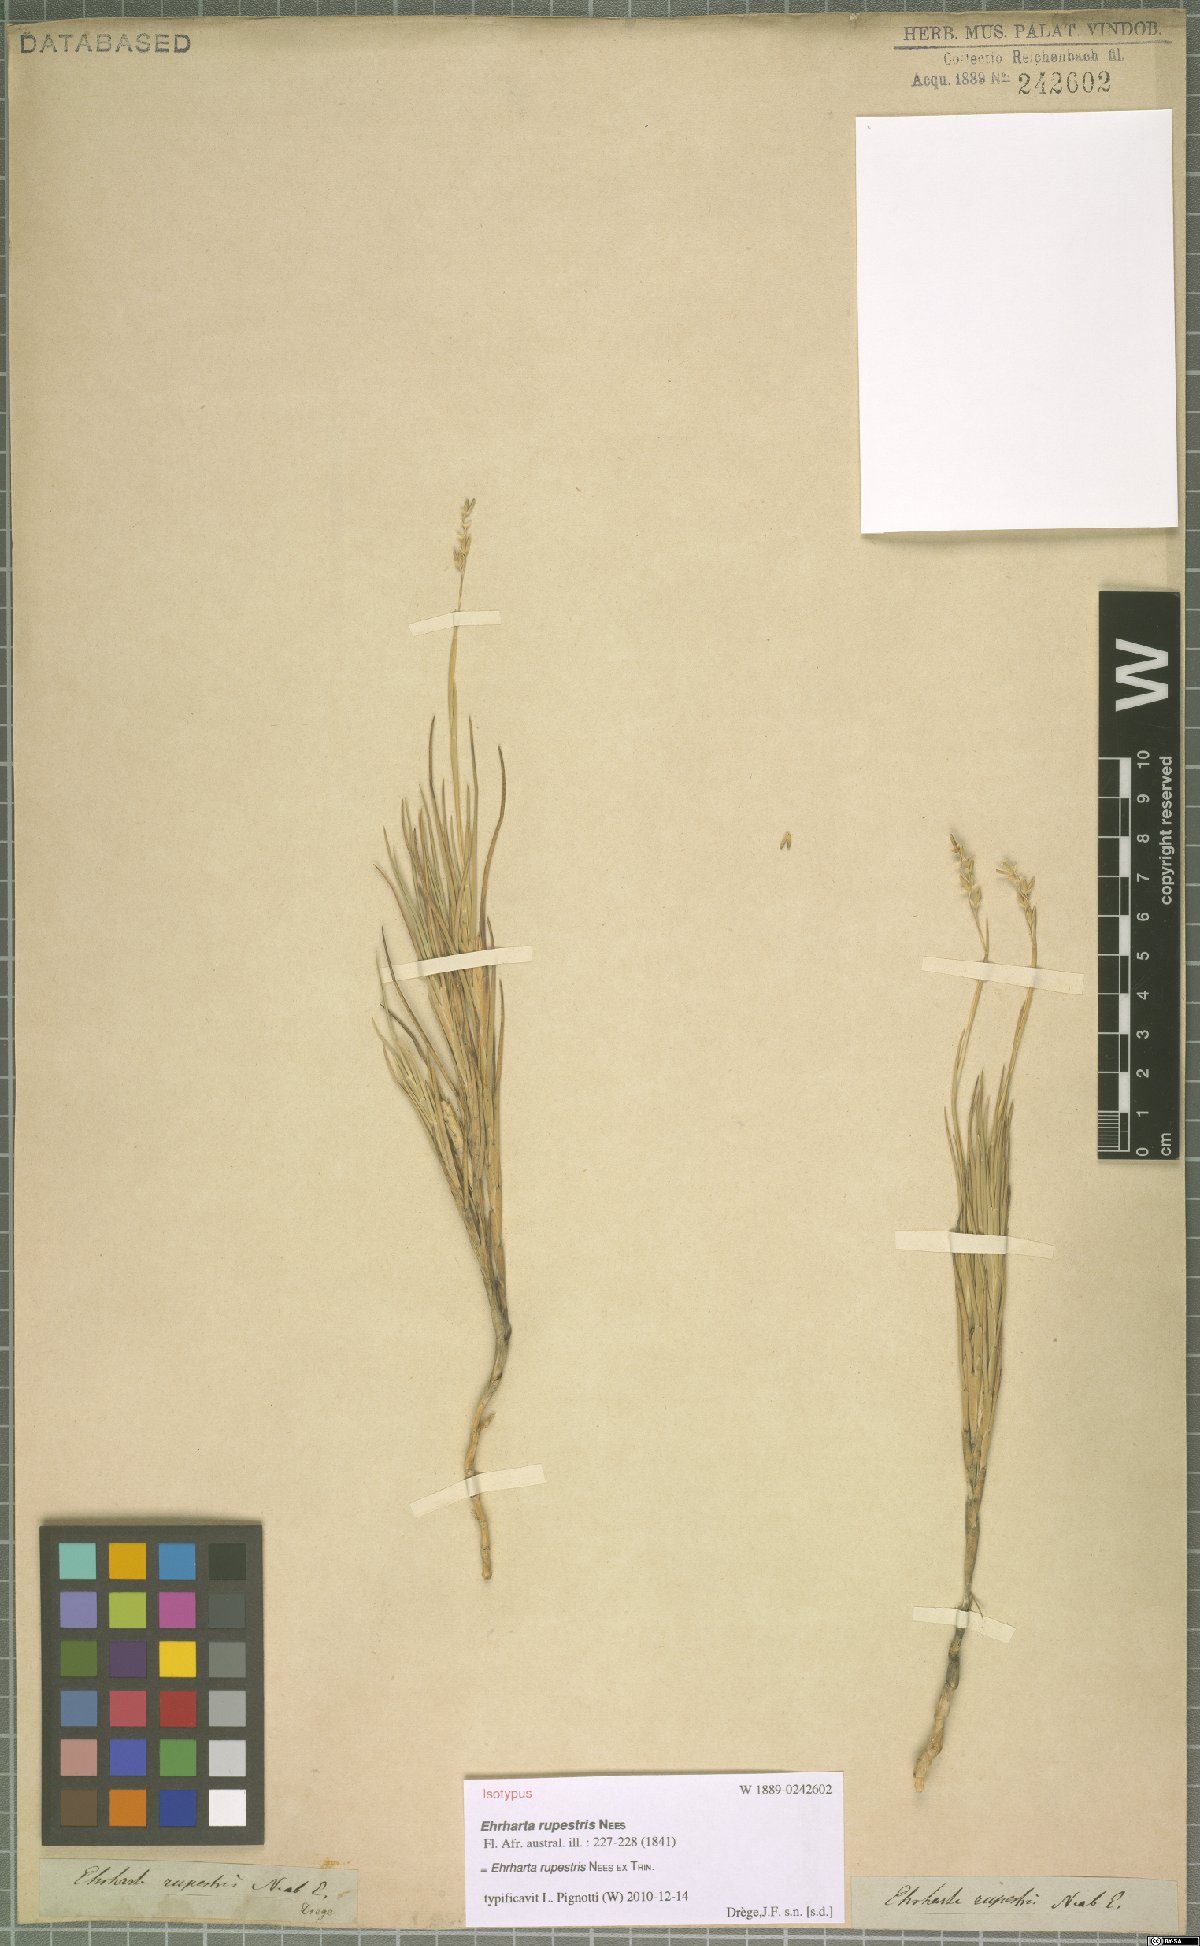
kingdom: Plantae
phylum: Tracheophyta
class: Liliopsida
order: Poales
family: Poaceae
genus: Ehrharta
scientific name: Ehrharta rupestris
